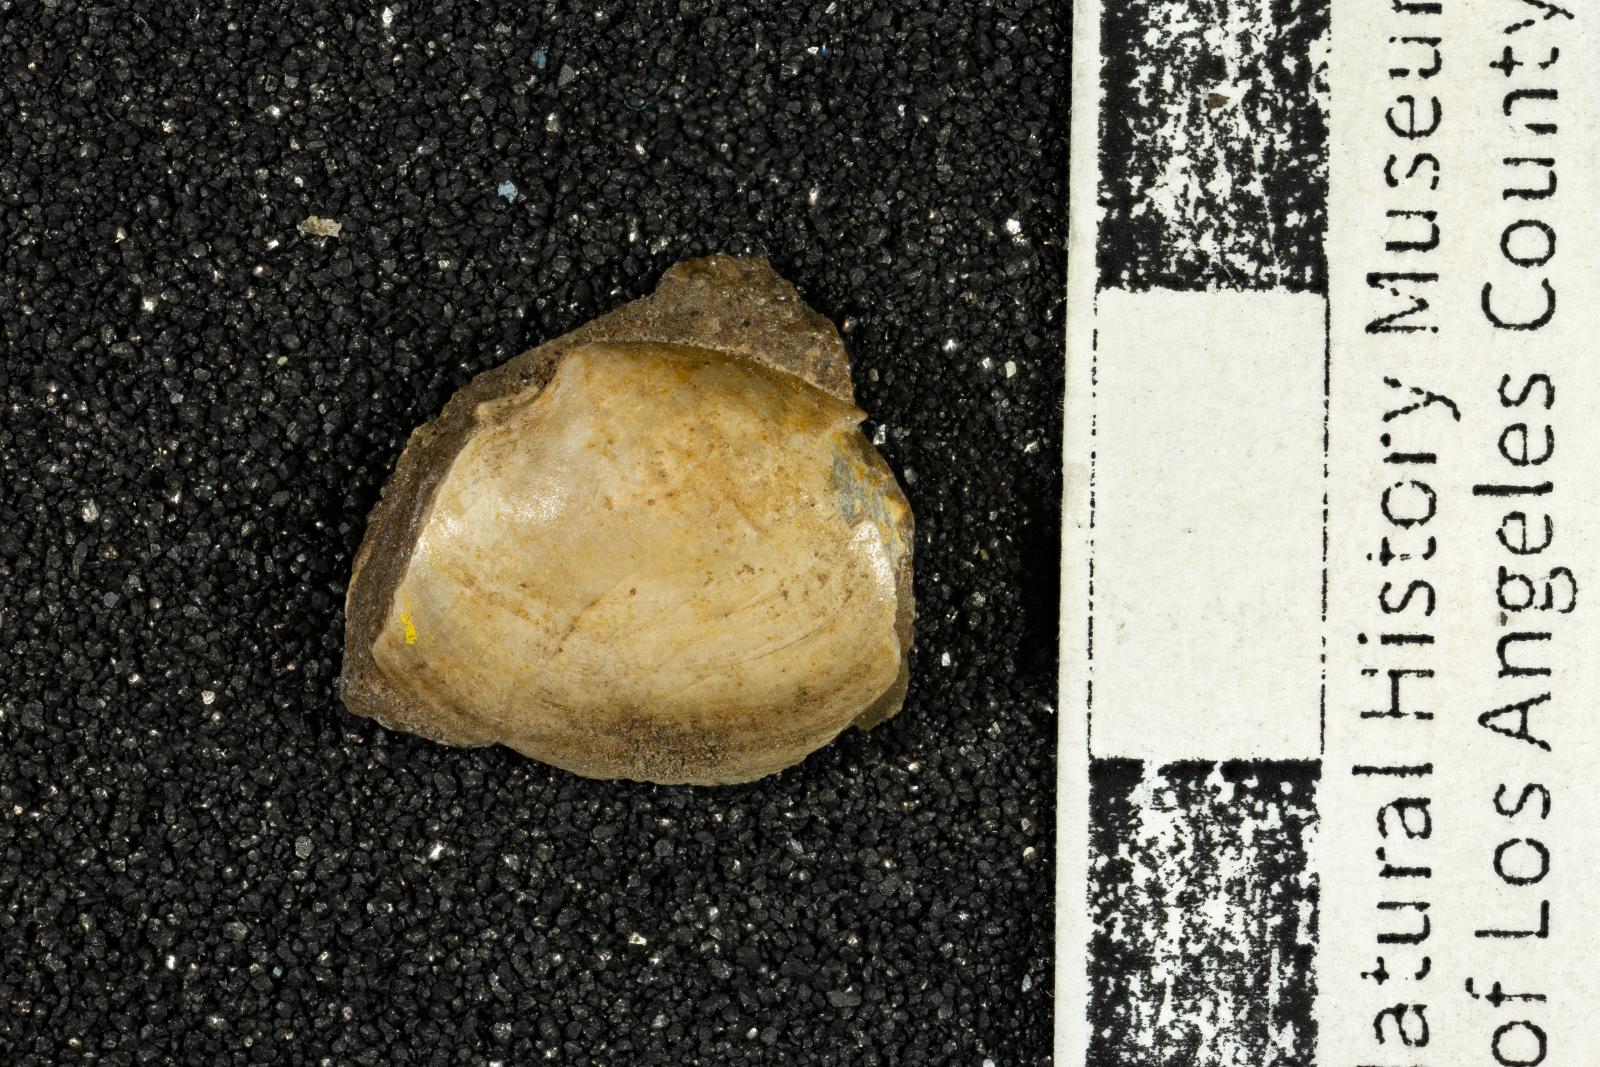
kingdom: Animalia
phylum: Mollusca
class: Bivalvia
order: Cardiida
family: Tancrediidae
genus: Meekia
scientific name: Meekia daileyi
